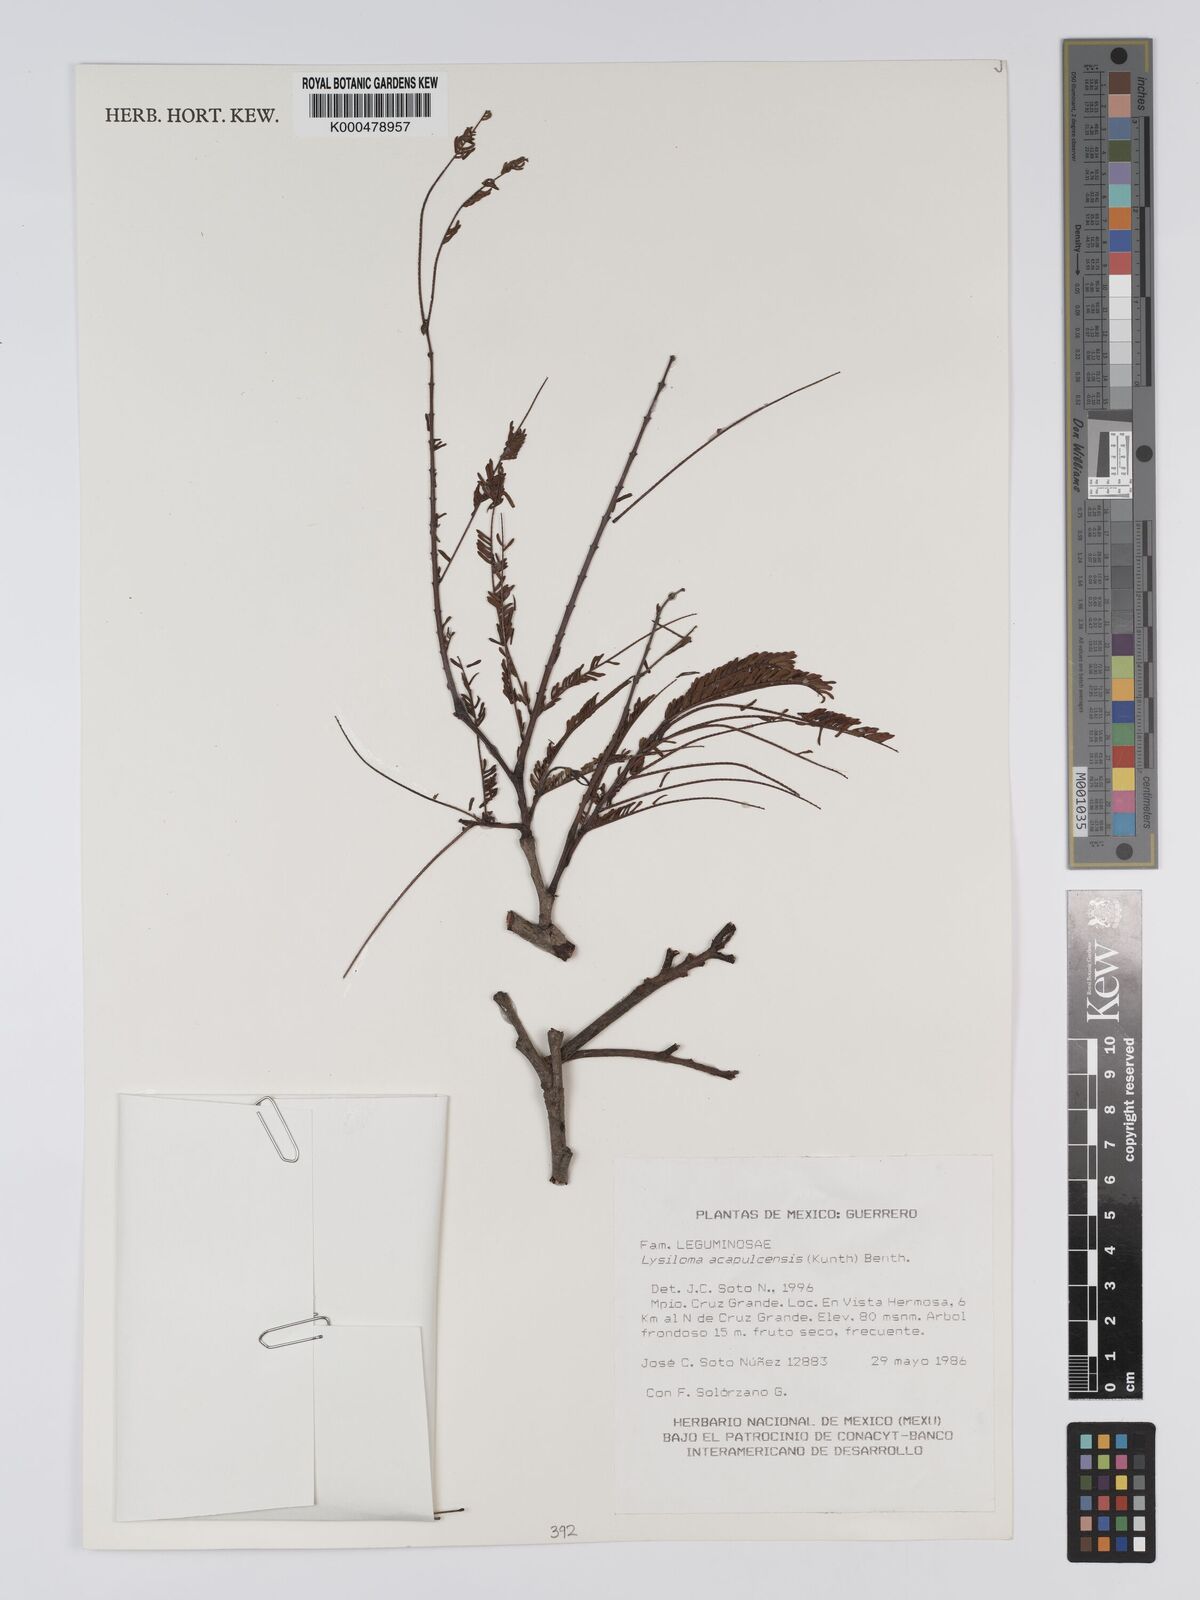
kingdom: Plantae
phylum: Tracheophyta
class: Magnoliopsida
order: Fabales
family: Fabaceae
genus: Lysiloma
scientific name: Lysiloma
